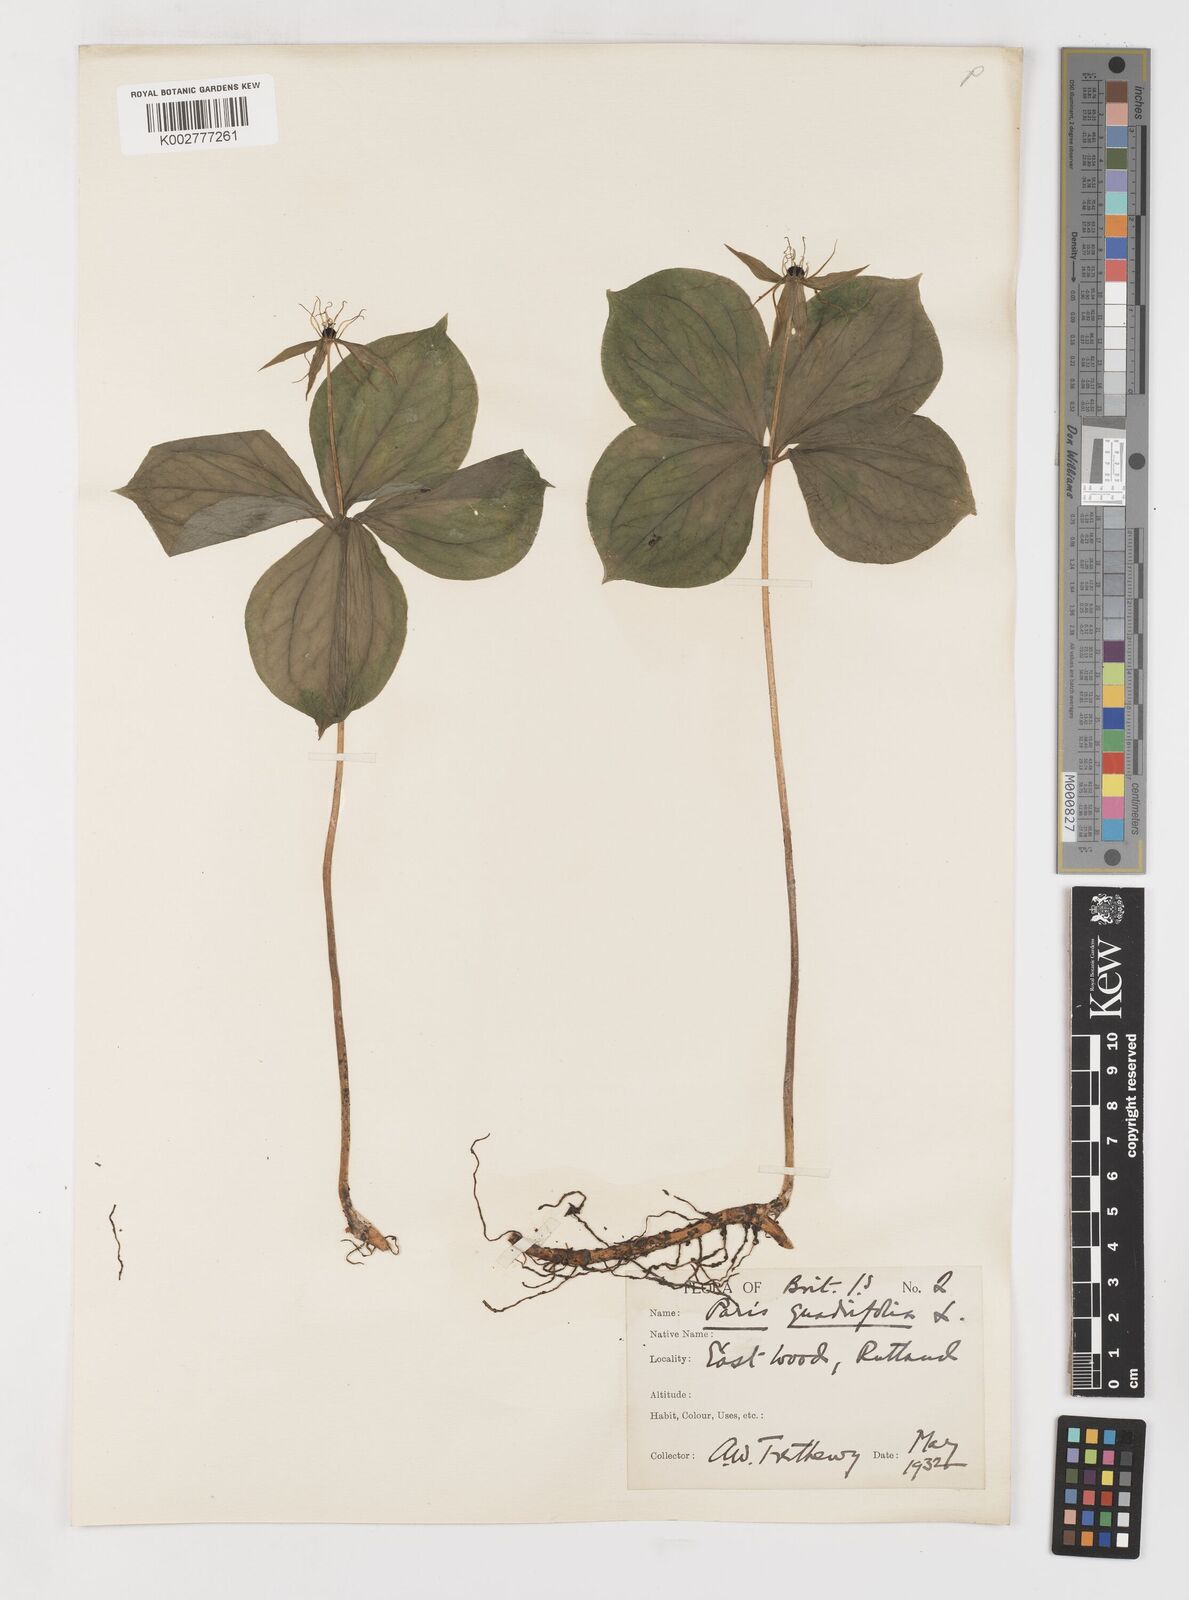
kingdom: Plantae
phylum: Tracheophyta
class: Liliopsida
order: Liliales
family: Melanthiaceae
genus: Paris
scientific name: Paris quadrifolia
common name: Herb-paris
